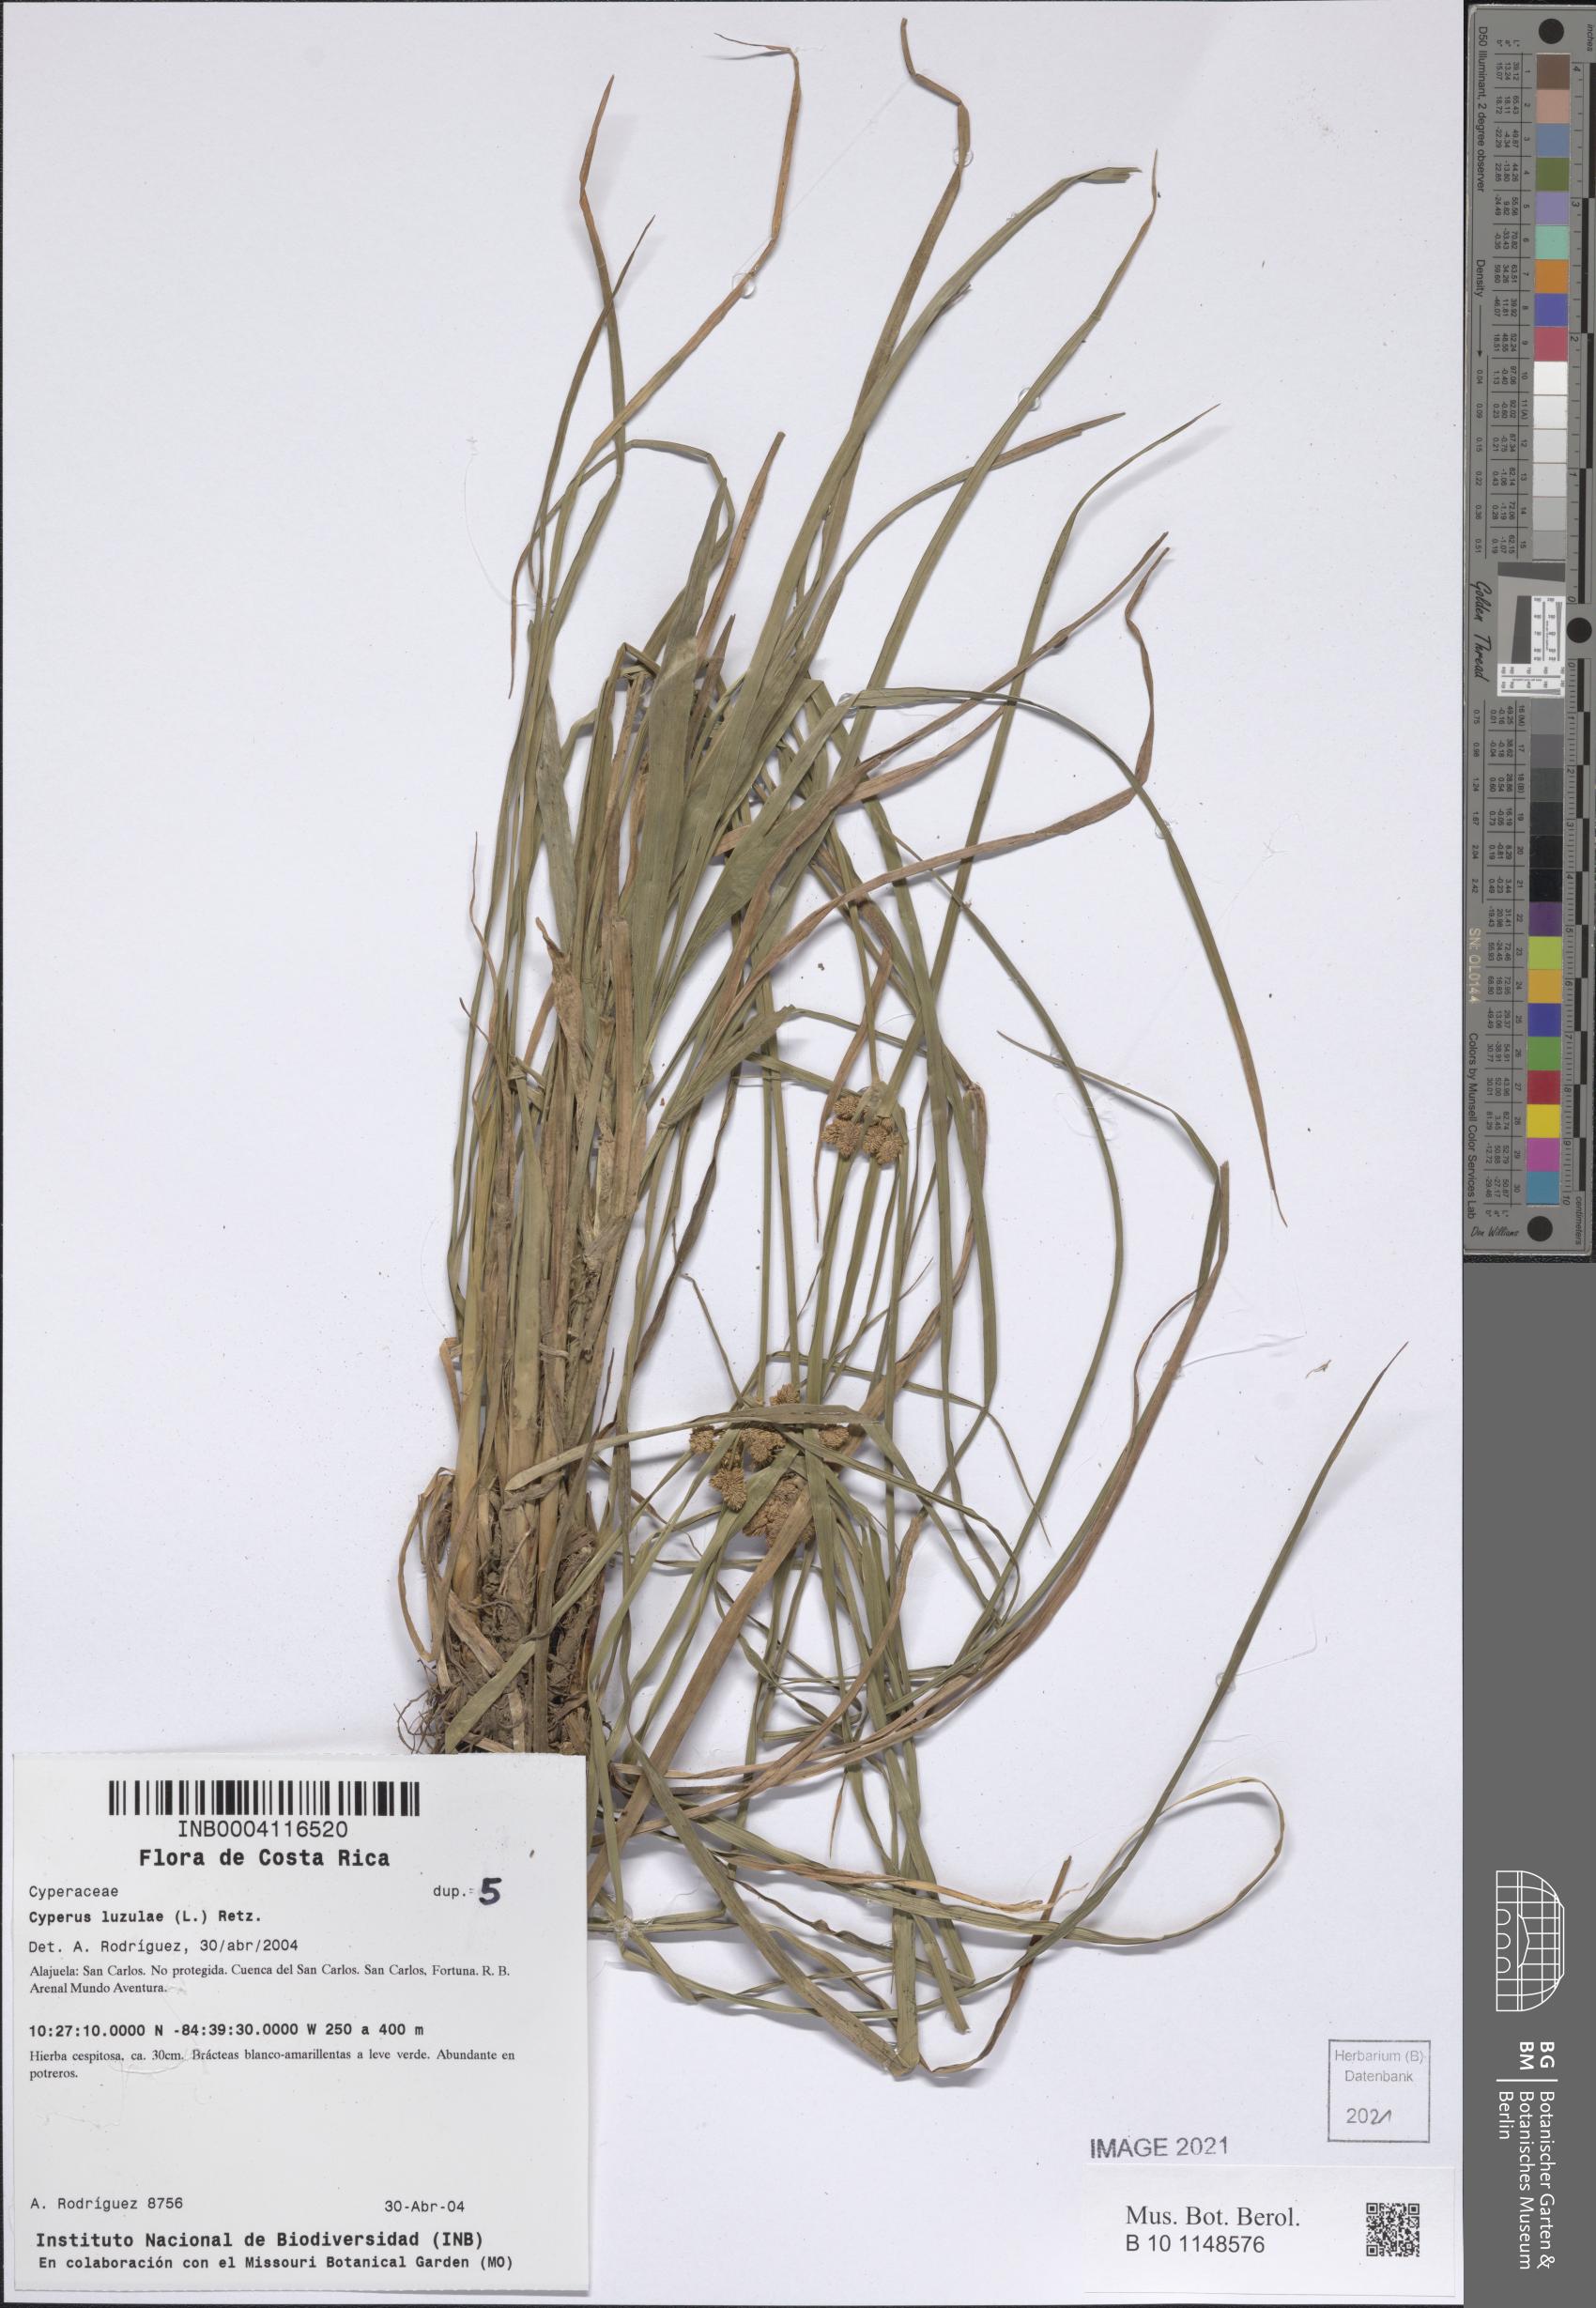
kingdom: Plantae
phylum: Tracheophyta
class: Liliopsida
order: Poales
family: Cyperaceae
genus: Cyperus
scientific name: Cyperus luzulae
